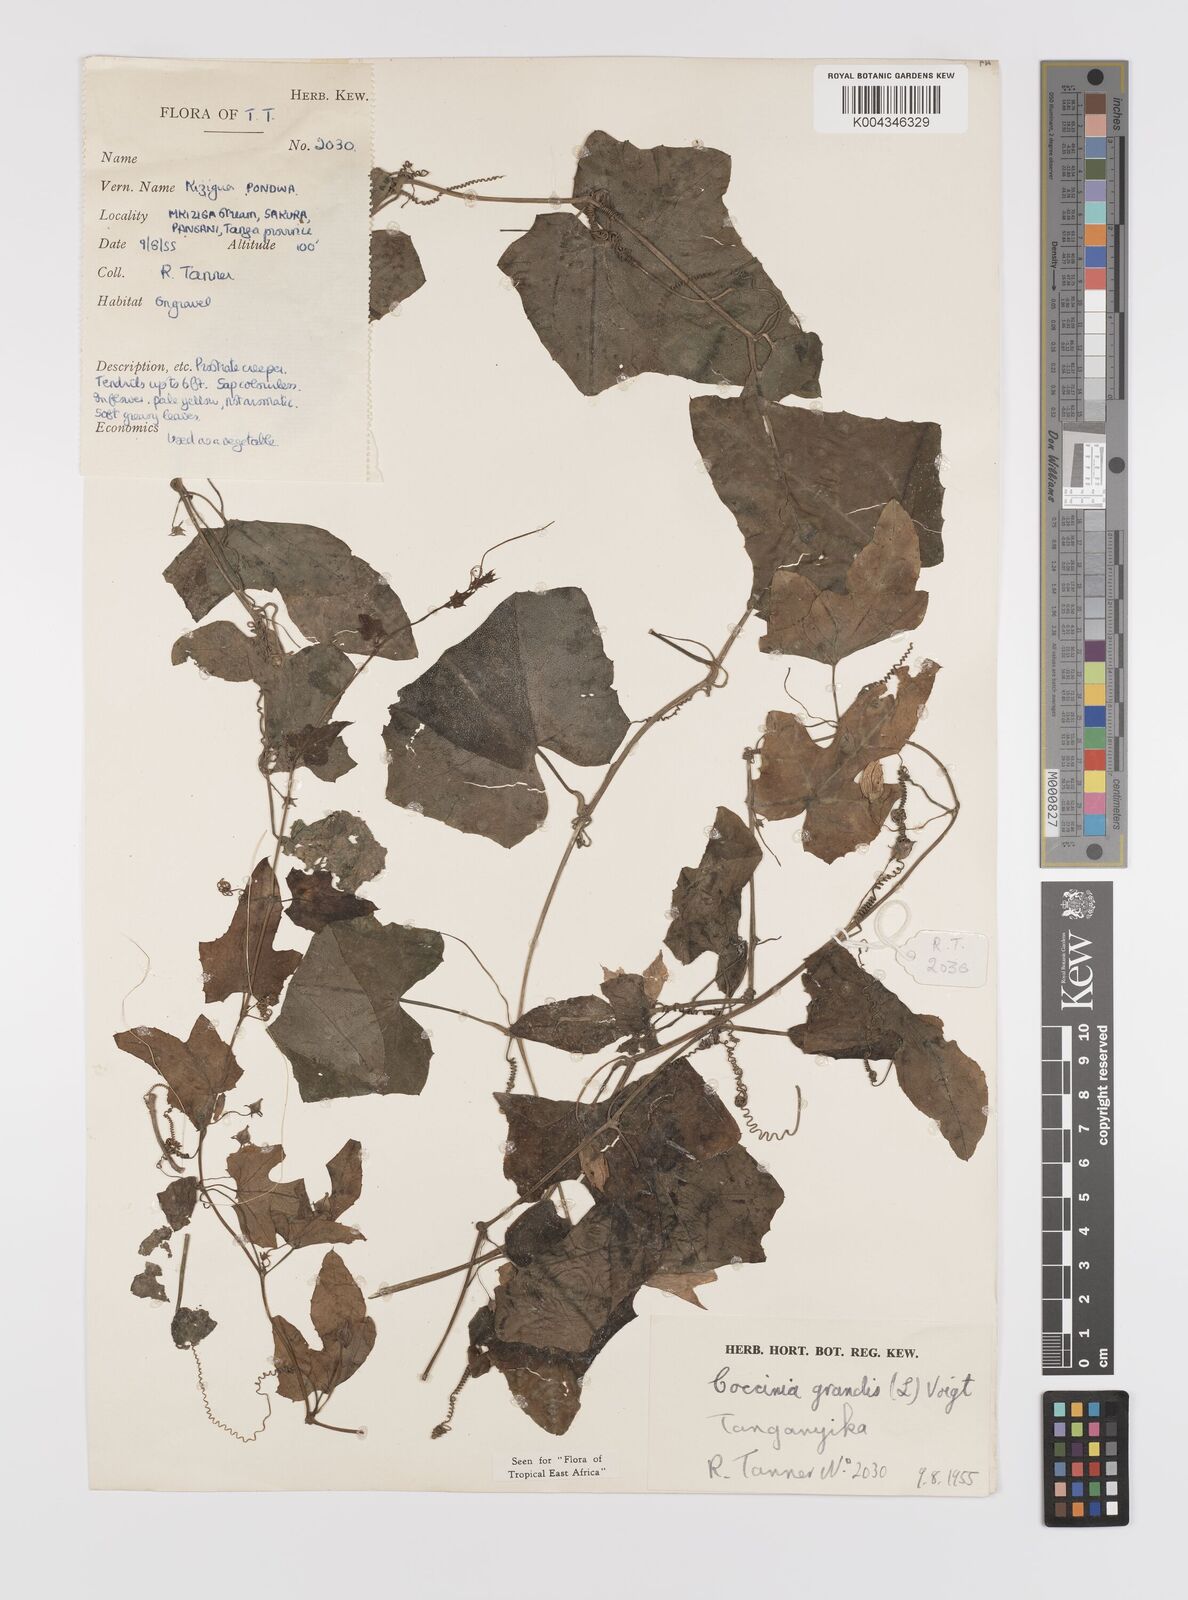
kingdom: Plantae
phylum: Tracheophyta
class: Magnoliopsida
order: Cucurbitales
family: Cucurbitaceae
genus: Coccinia
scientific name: Coccinia grandis
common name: Ivy gourd
